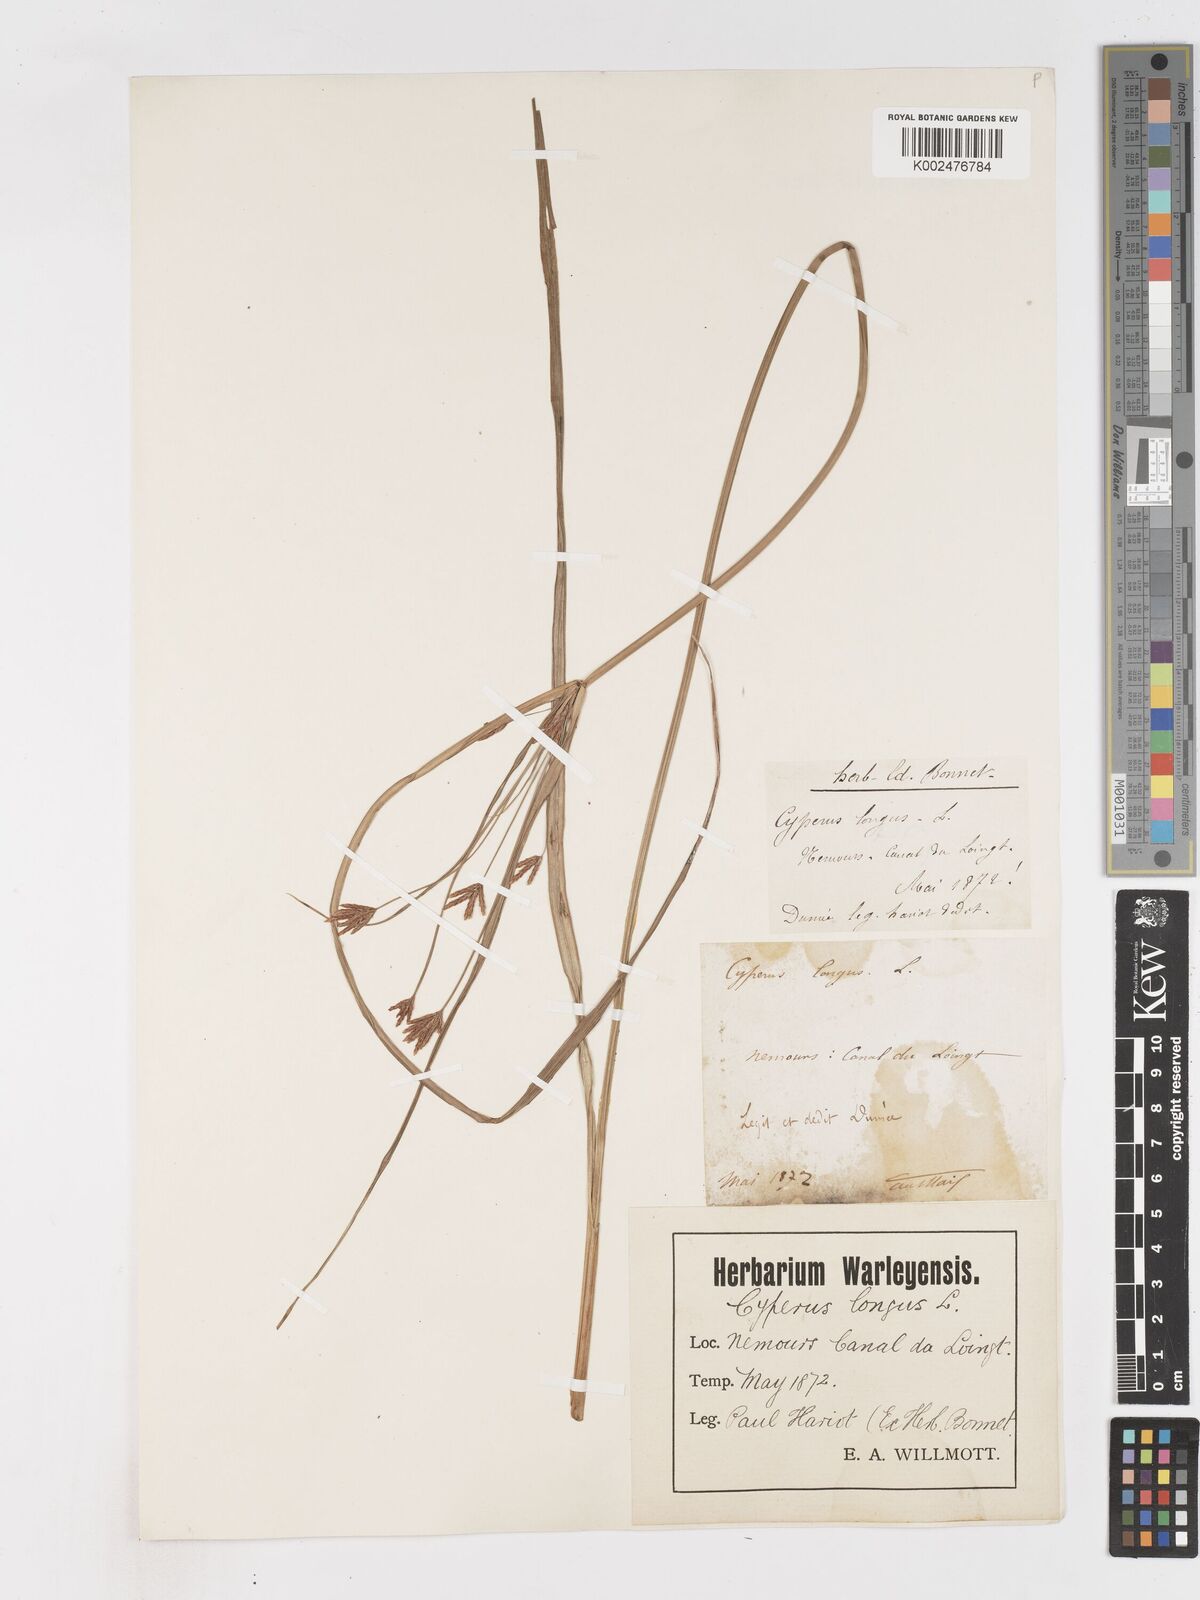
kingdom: Plantae
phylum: Tracheophyta
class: Liliopsida
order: Poales
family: Cyperaceae
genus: Cyperus
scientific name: Cyperus longus
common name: Galingale
